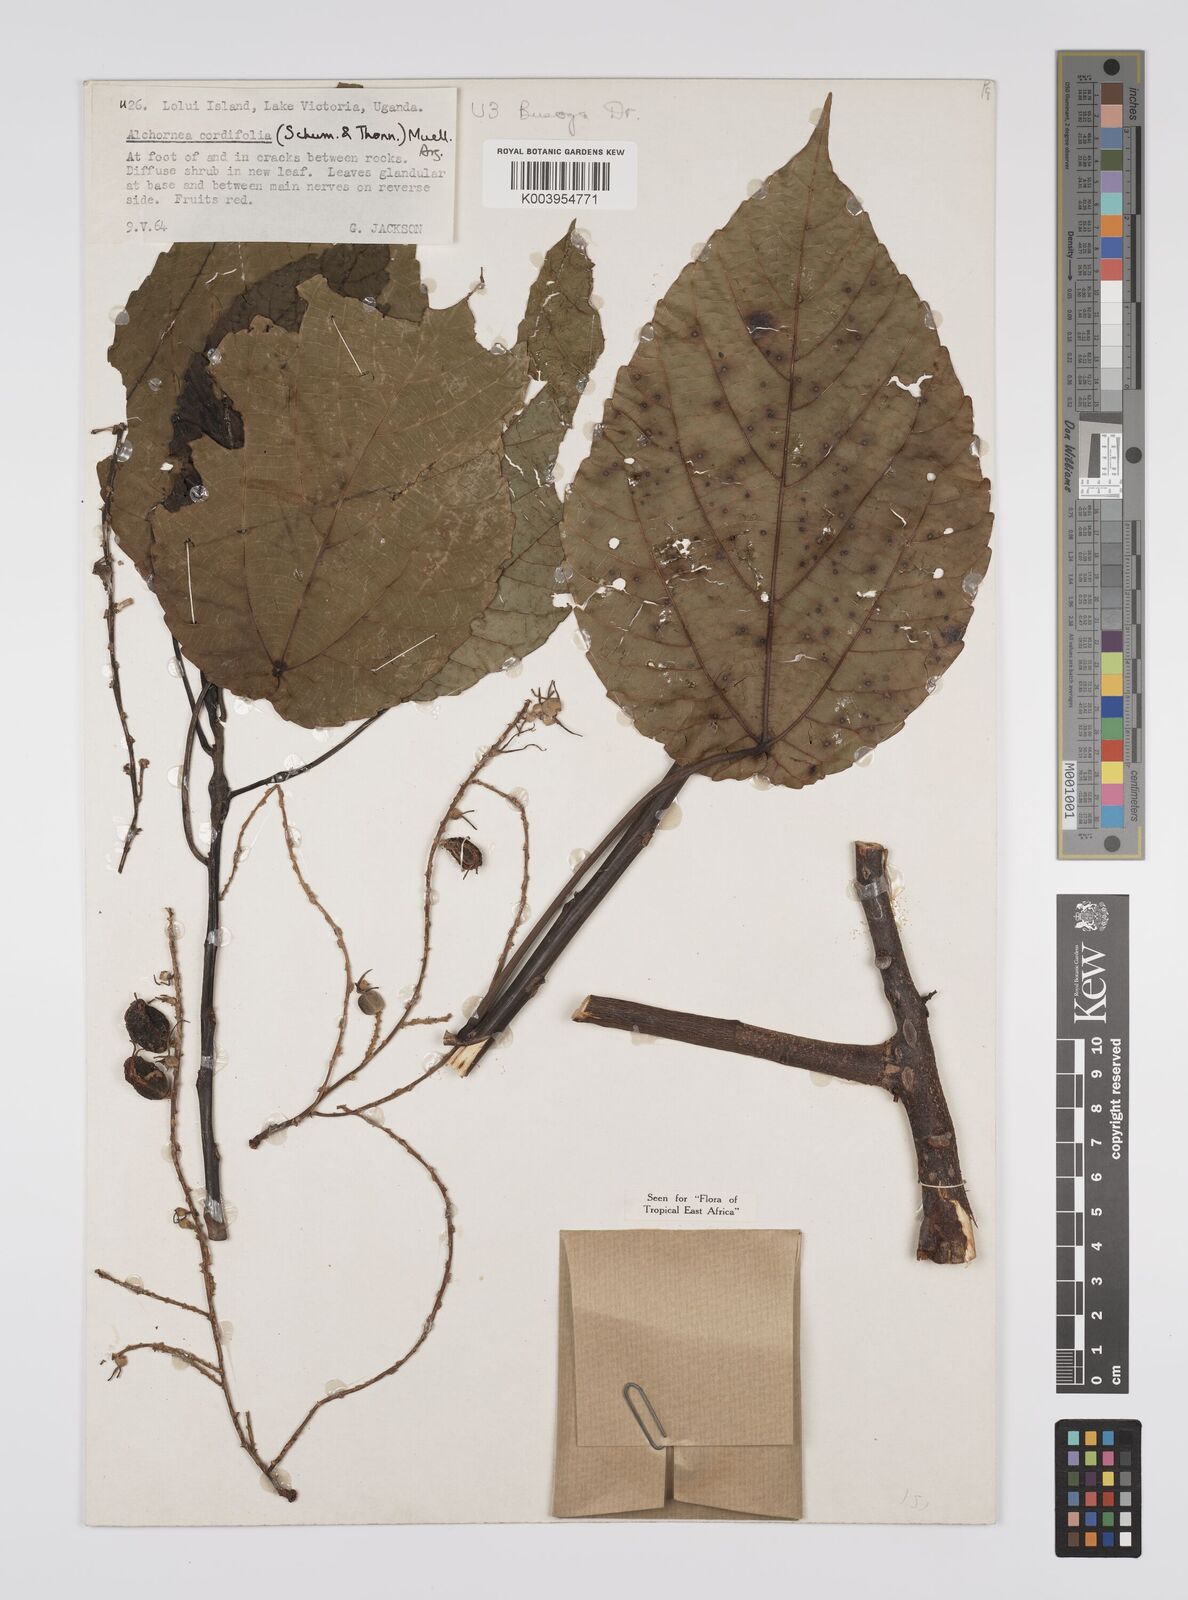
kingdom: Plantae
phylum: Tracheophyta
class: Magnoliopsida
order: Malpighiales
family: Euphorbiaceae
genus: Alchornea
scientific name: Alchornea cordifolia
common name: Christmasbush
